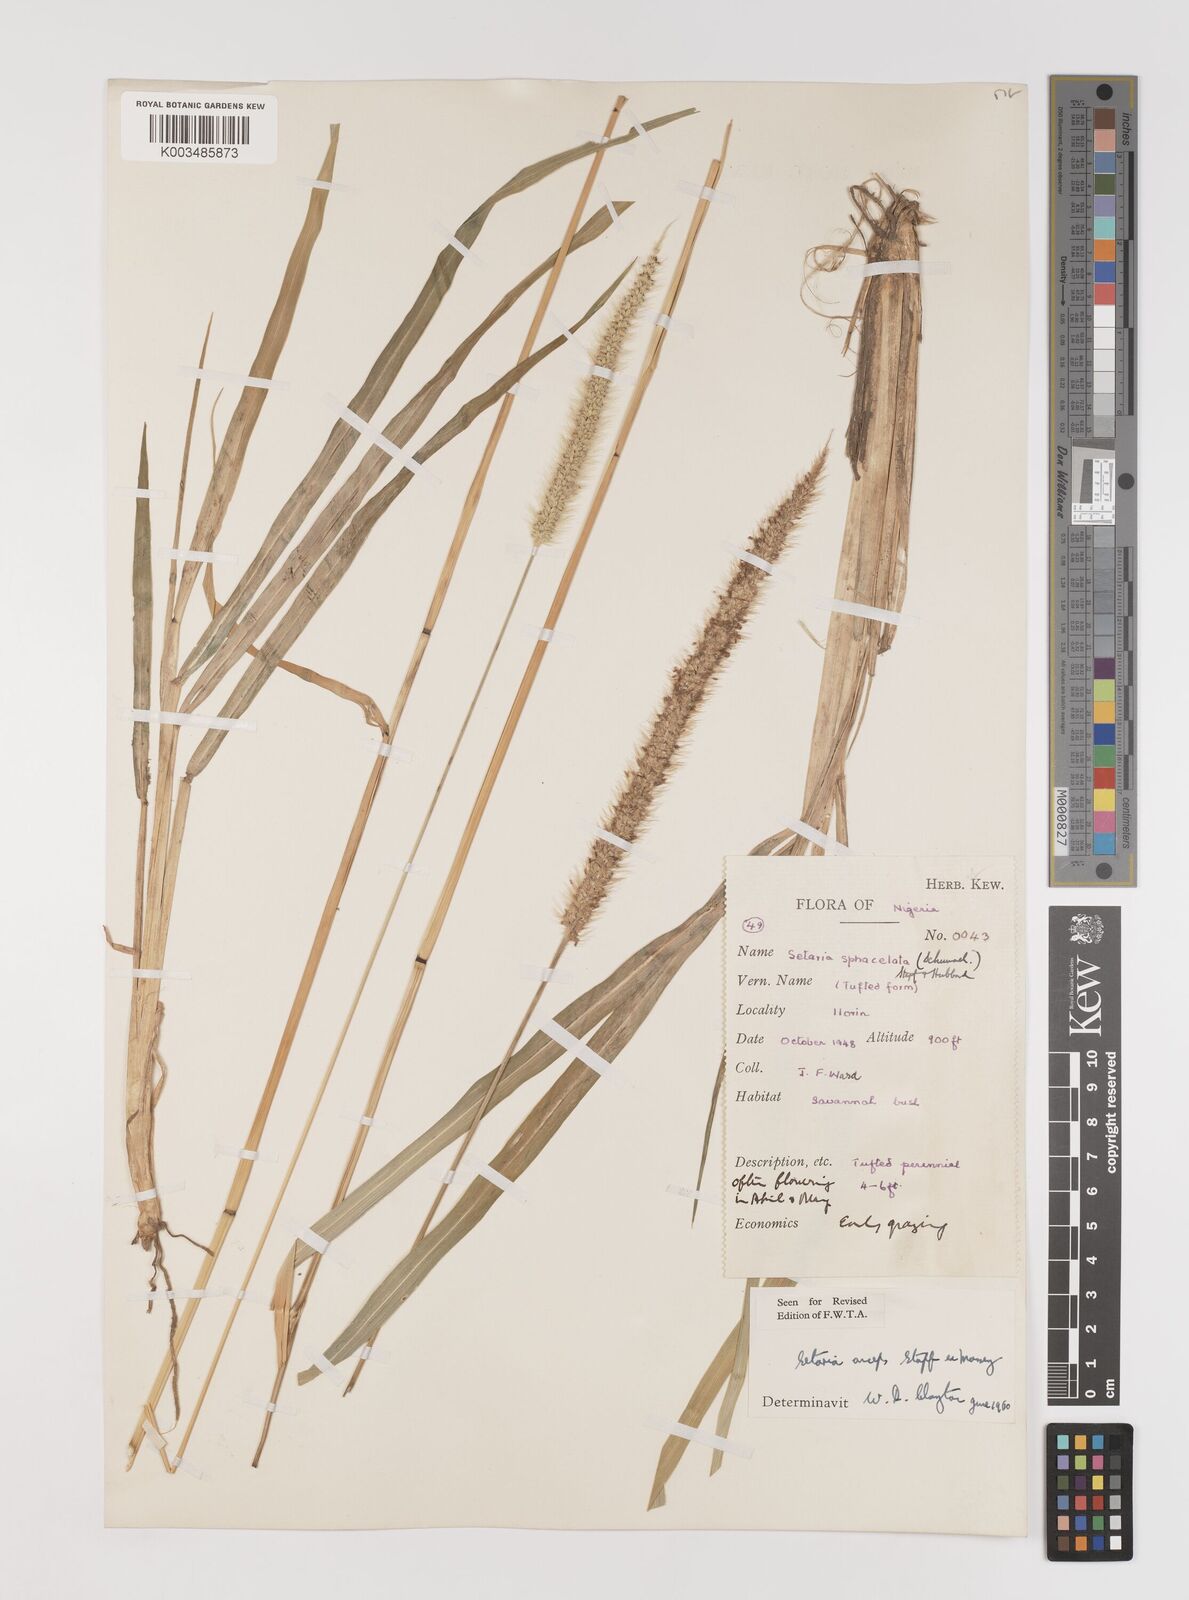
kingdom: Plantae
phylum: Tracheophyta
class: Liliopsida
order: Poales
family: Poaceae
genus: Setaria
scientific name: Setaria sphacelata
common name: African bristlegrass
